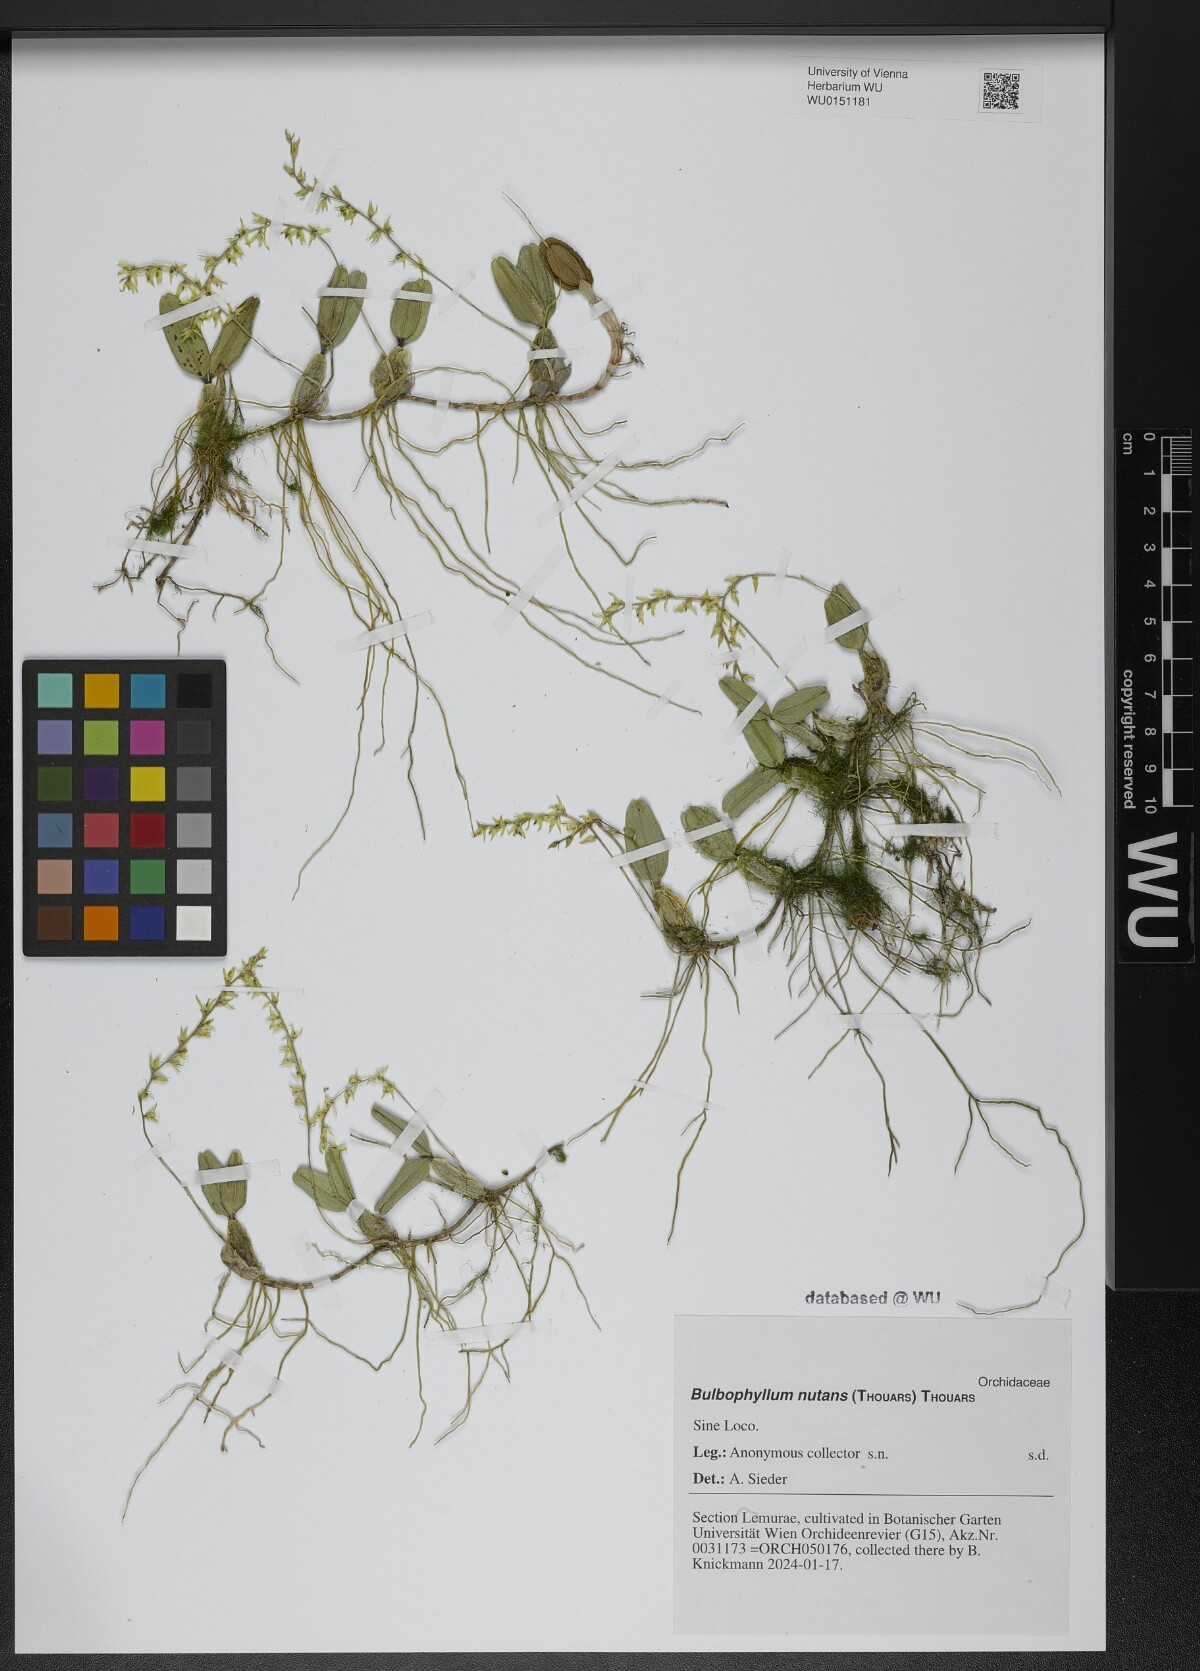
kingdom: Plantae
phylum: Tracheophyta
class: Liliopsida
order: Asparagales
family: Orchidaceae
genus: Bulbophyllum
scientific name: Bulbophyllum nutans
